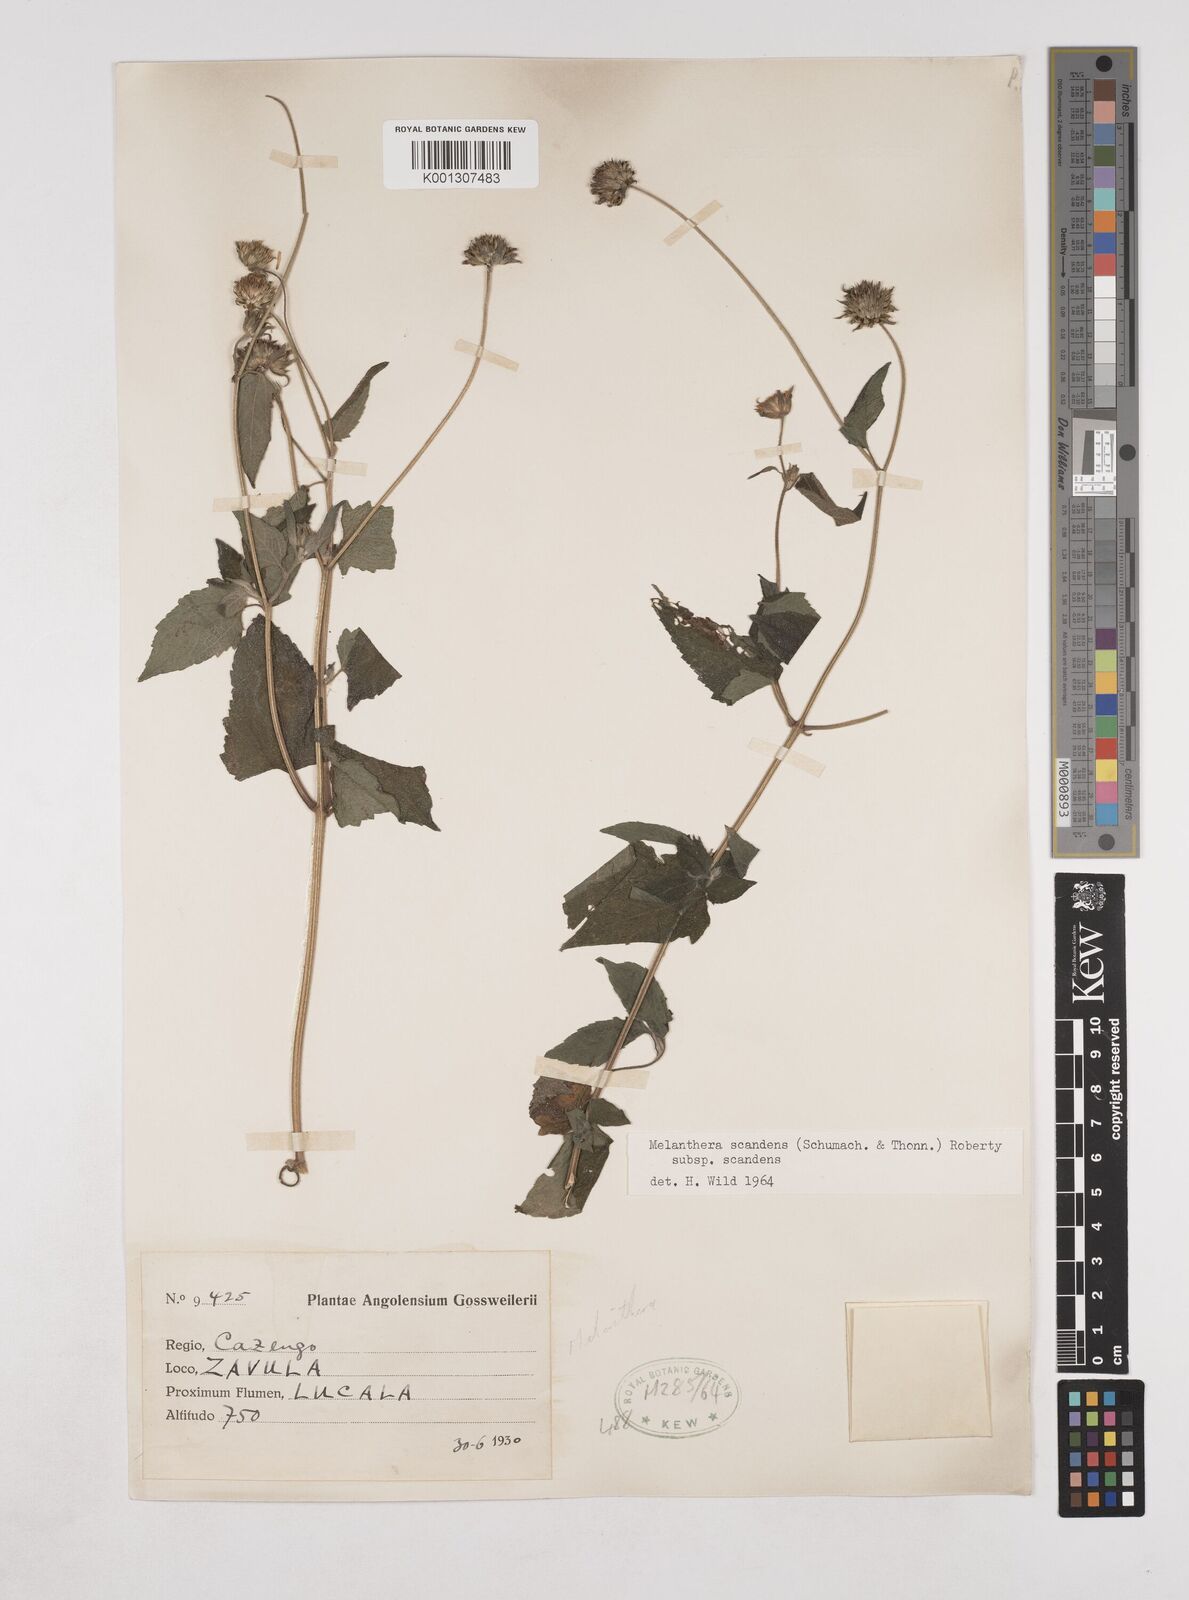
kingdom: Plantae
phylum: Tracheophyta
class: Magnoliopsida
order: Asterales
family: Asteraceae
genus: Lipotriche
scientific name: Lipotriche scandens
